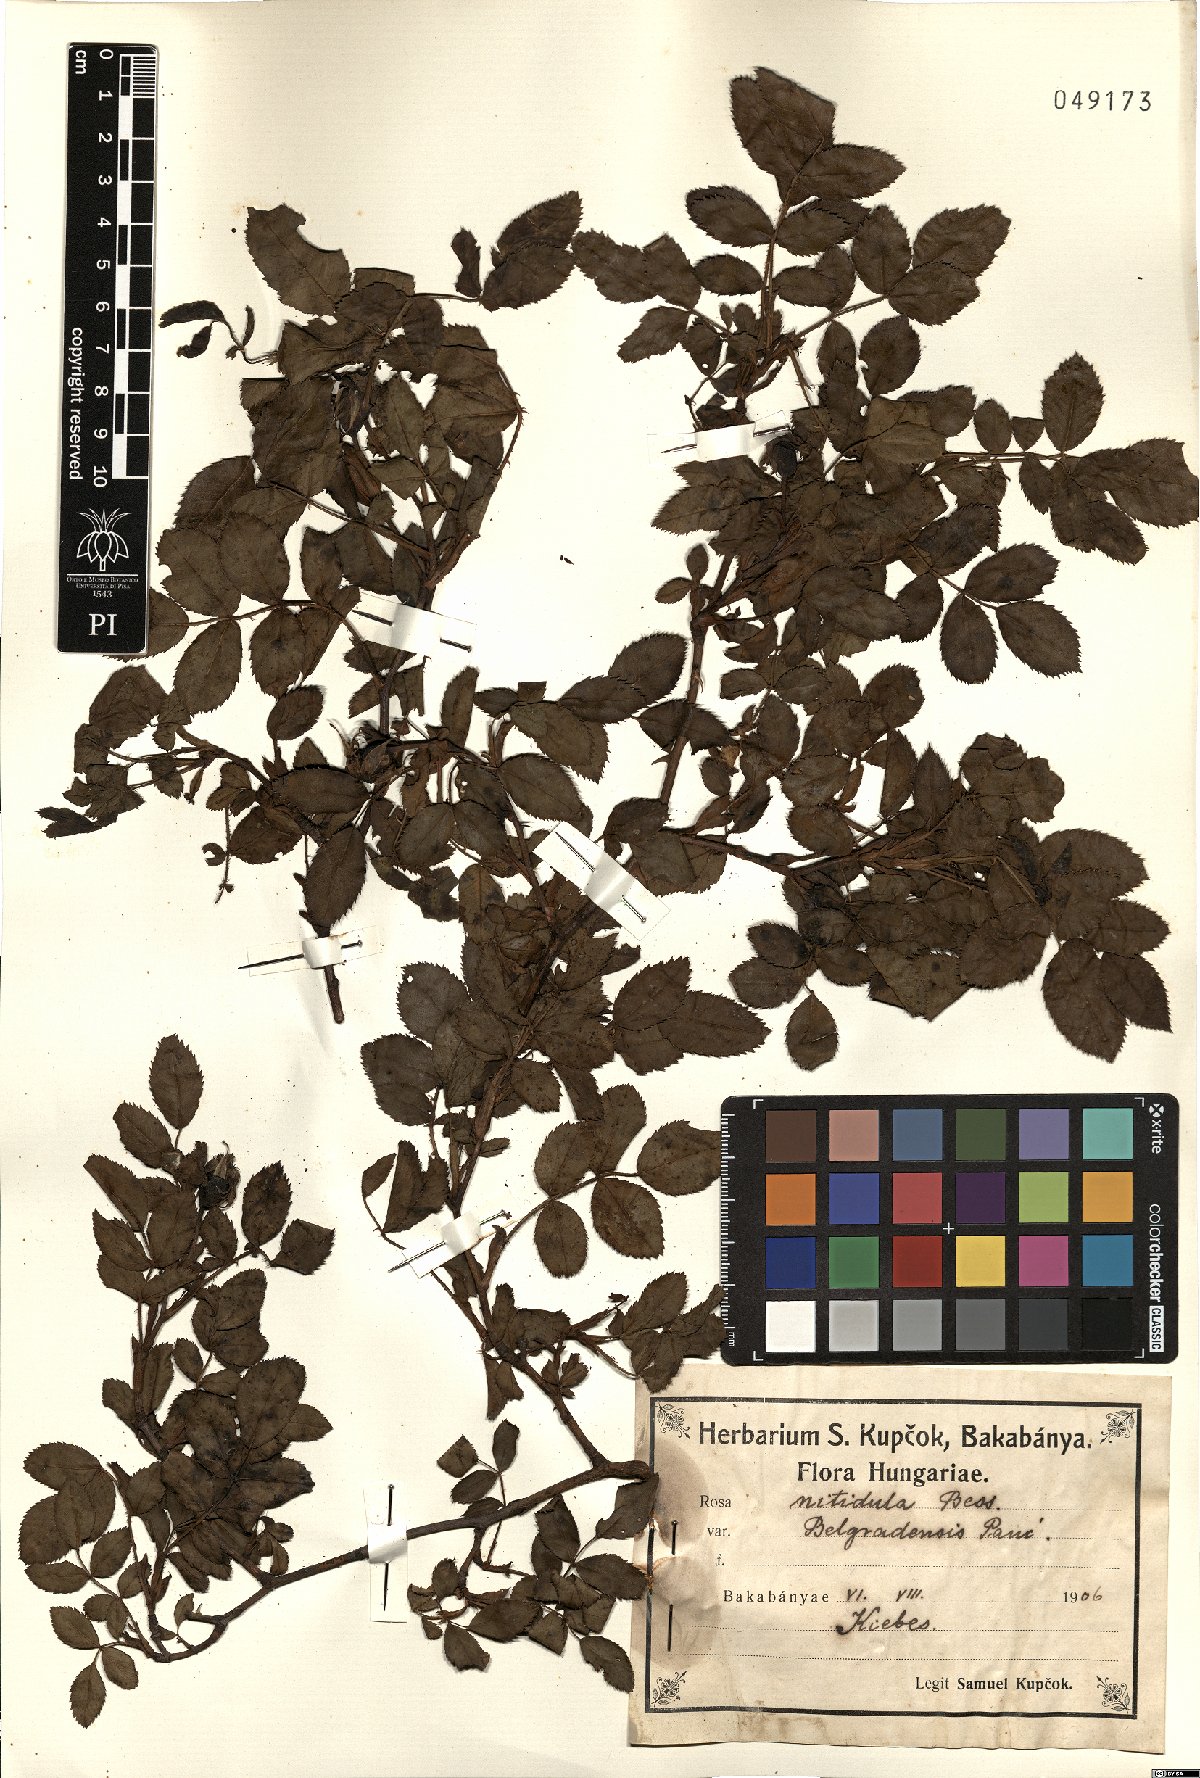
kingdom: Plantae
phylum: Tracheophyta
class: Magnoliopsida
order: Rosales
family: Rosaceae
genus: Rosa
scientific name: Rosa canina
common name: Dog rose
